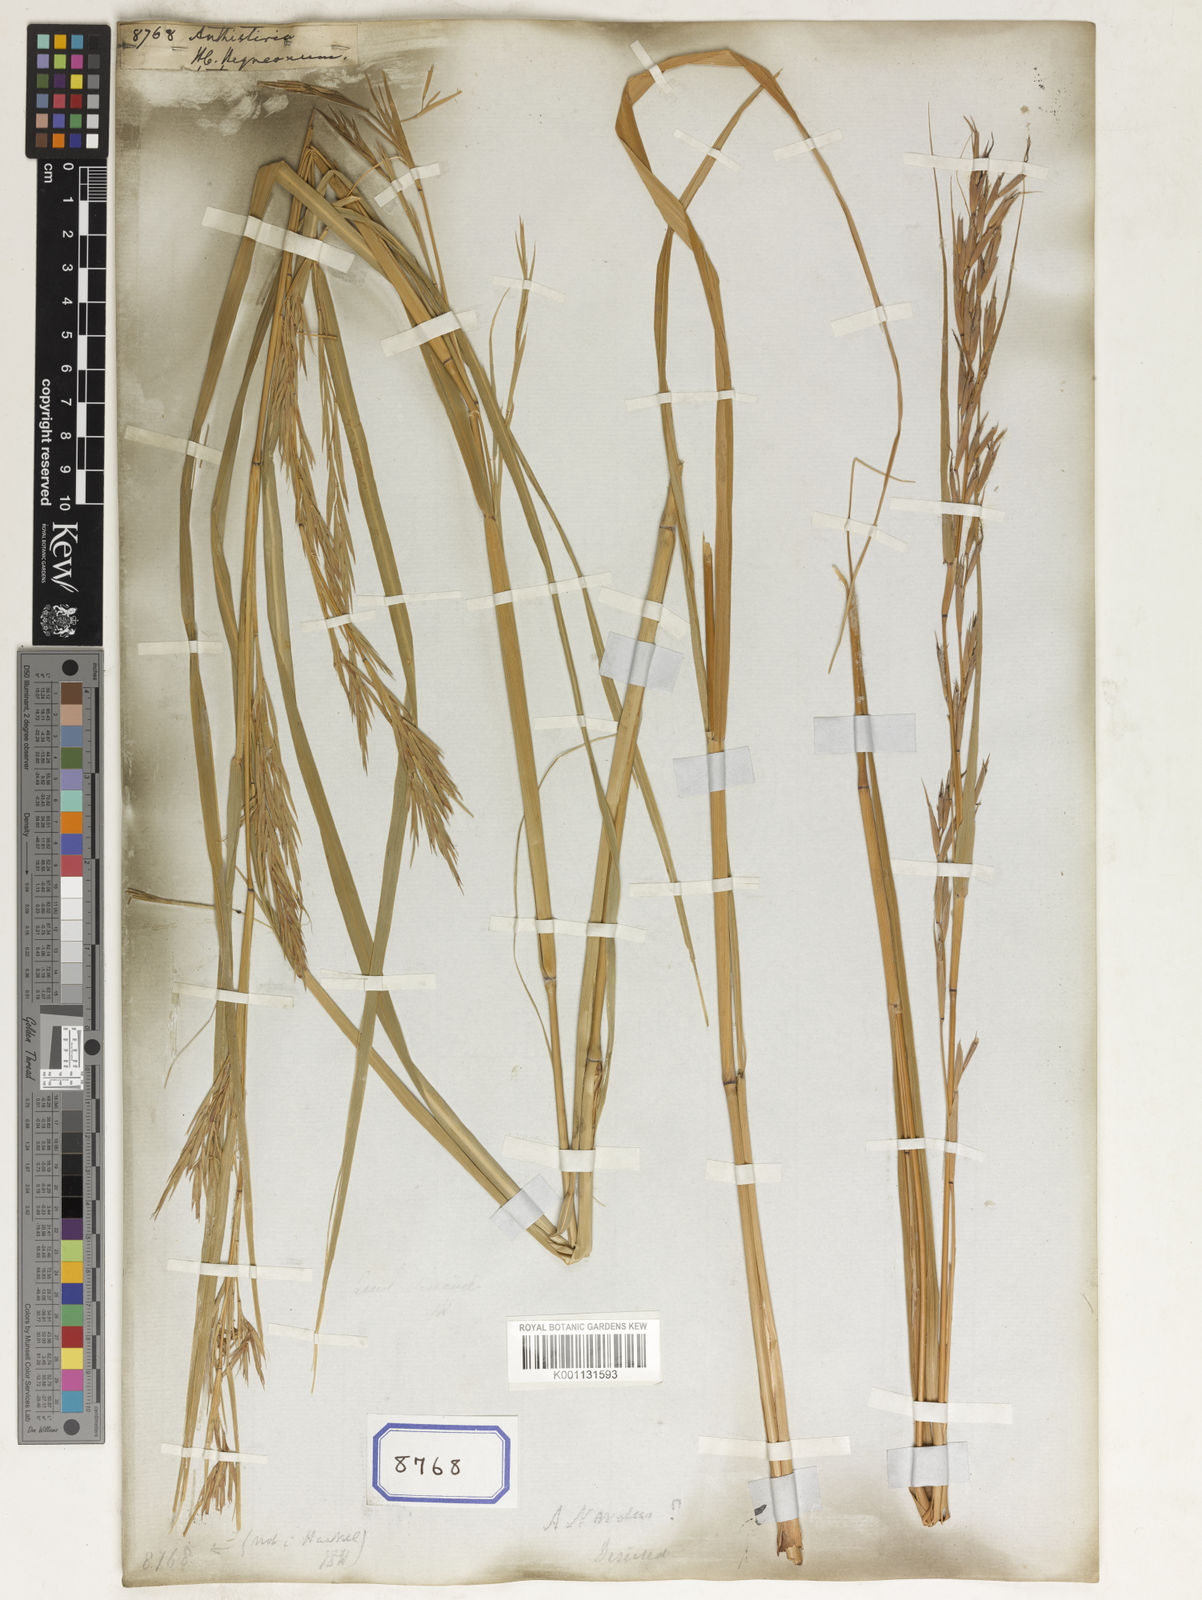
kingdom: Plantae
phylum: Tracheophyta
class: Liliopsida
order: Poales
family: Poaceae
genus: Themeda
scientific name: Themeda
